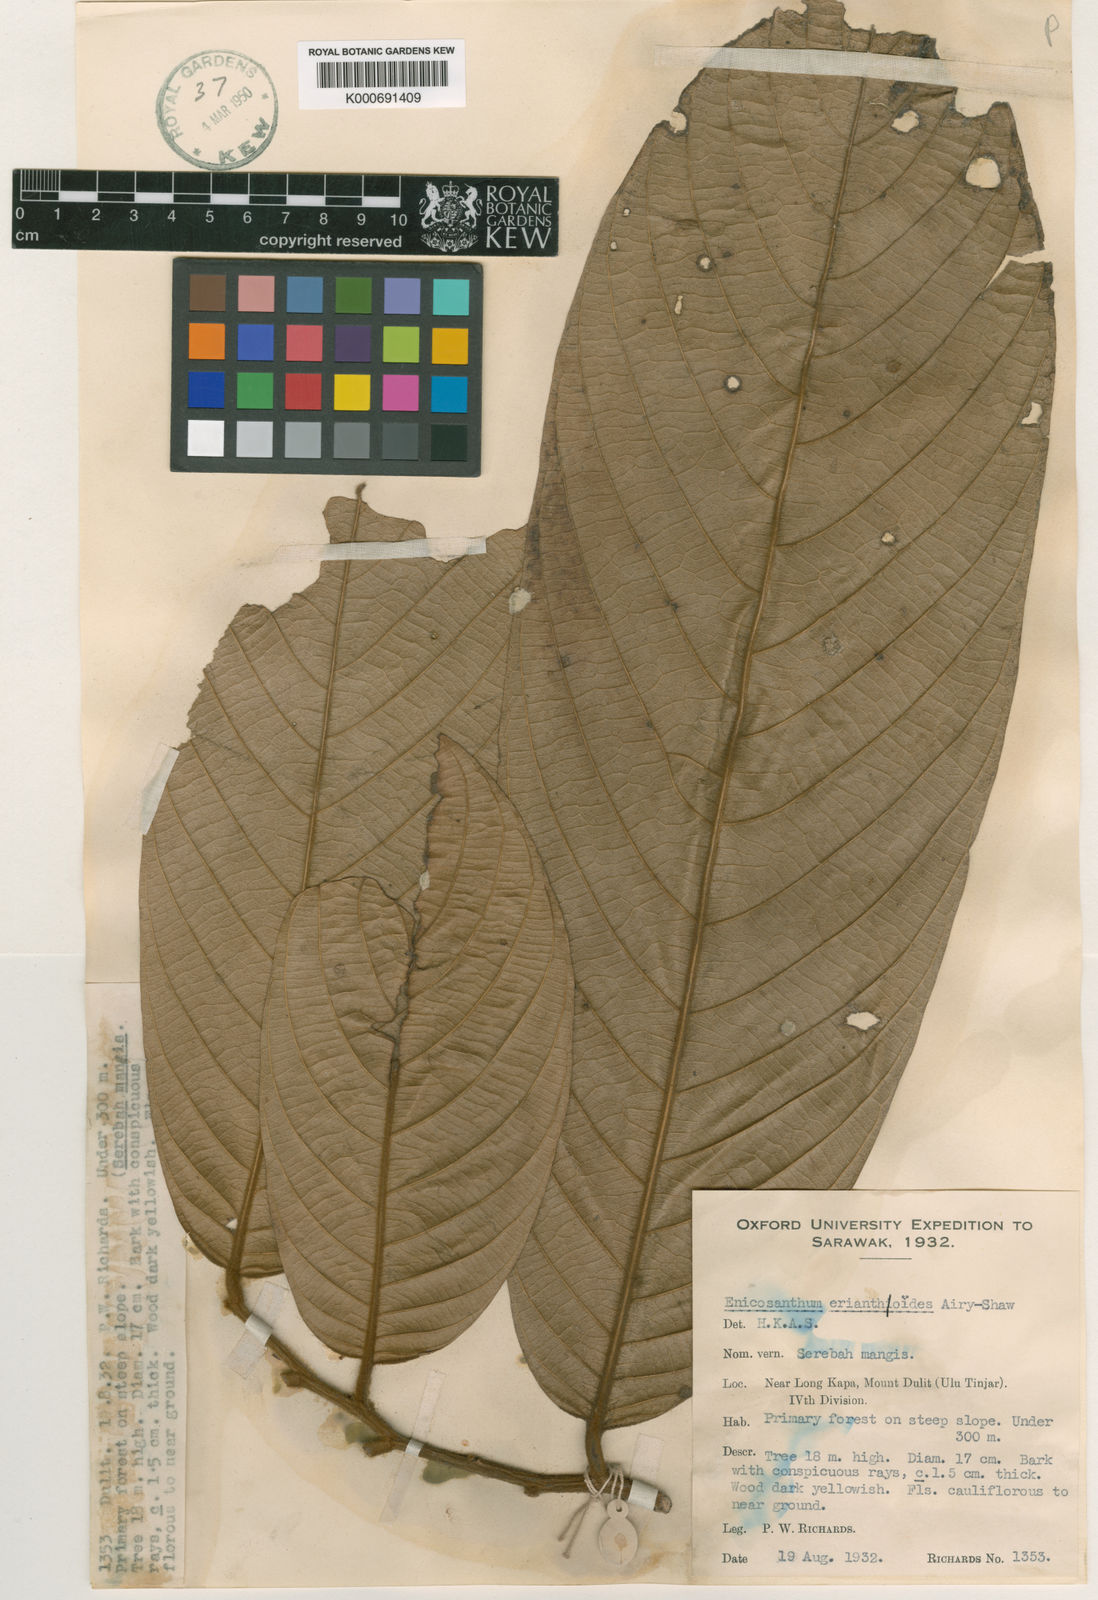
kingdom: Plantae
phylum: Tracheophyta
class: Magnoliopsida
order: Magnoliales
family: Annonaceae
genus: Enicosanthum
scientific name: Enicosanthum erianthoides
